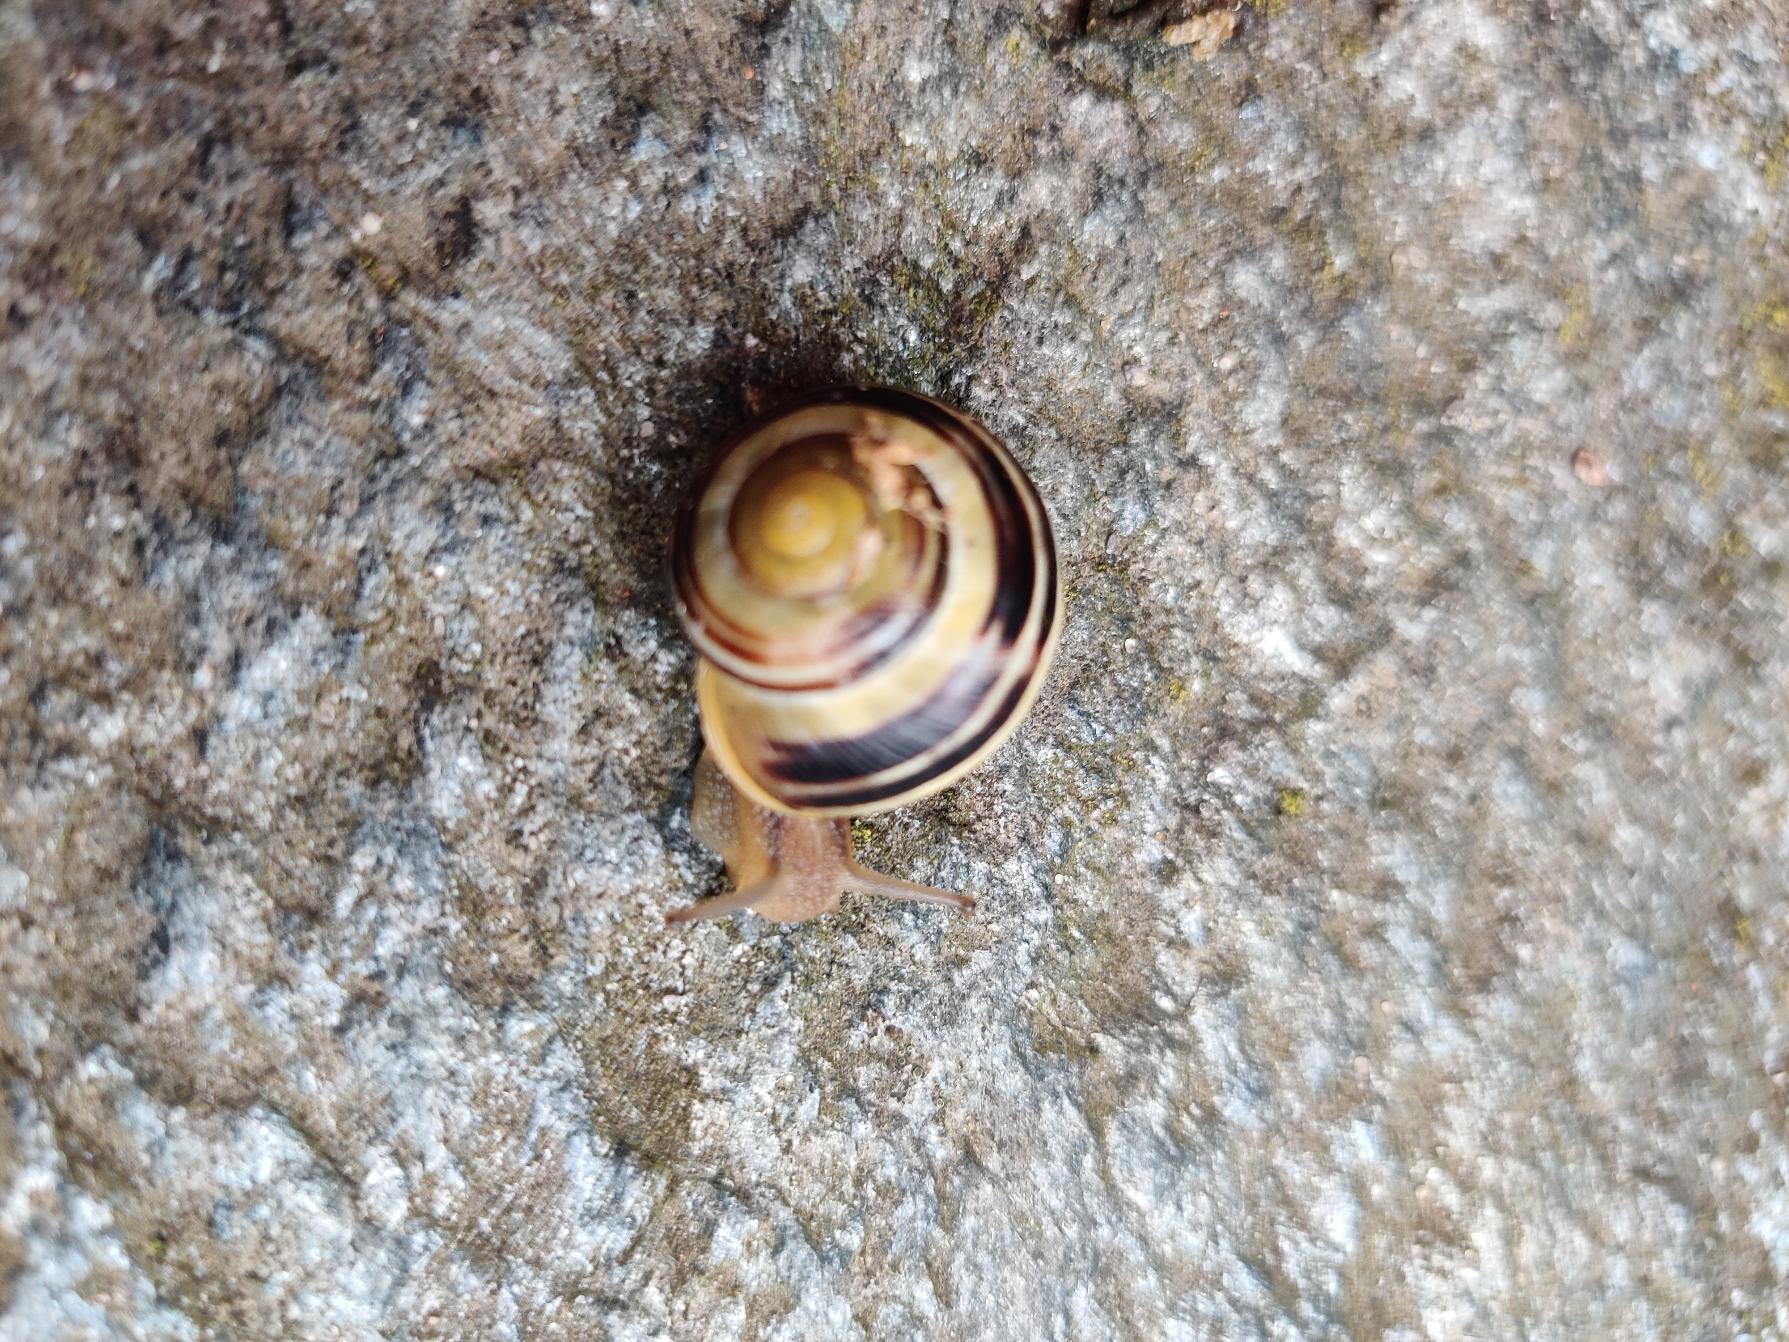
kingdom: Animalia
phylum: Mollusca
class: Gastropoda
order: Stylommatophora
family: Helicidae
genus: Cepaea
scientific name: Cepaea hortensis
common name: Havesnegl
